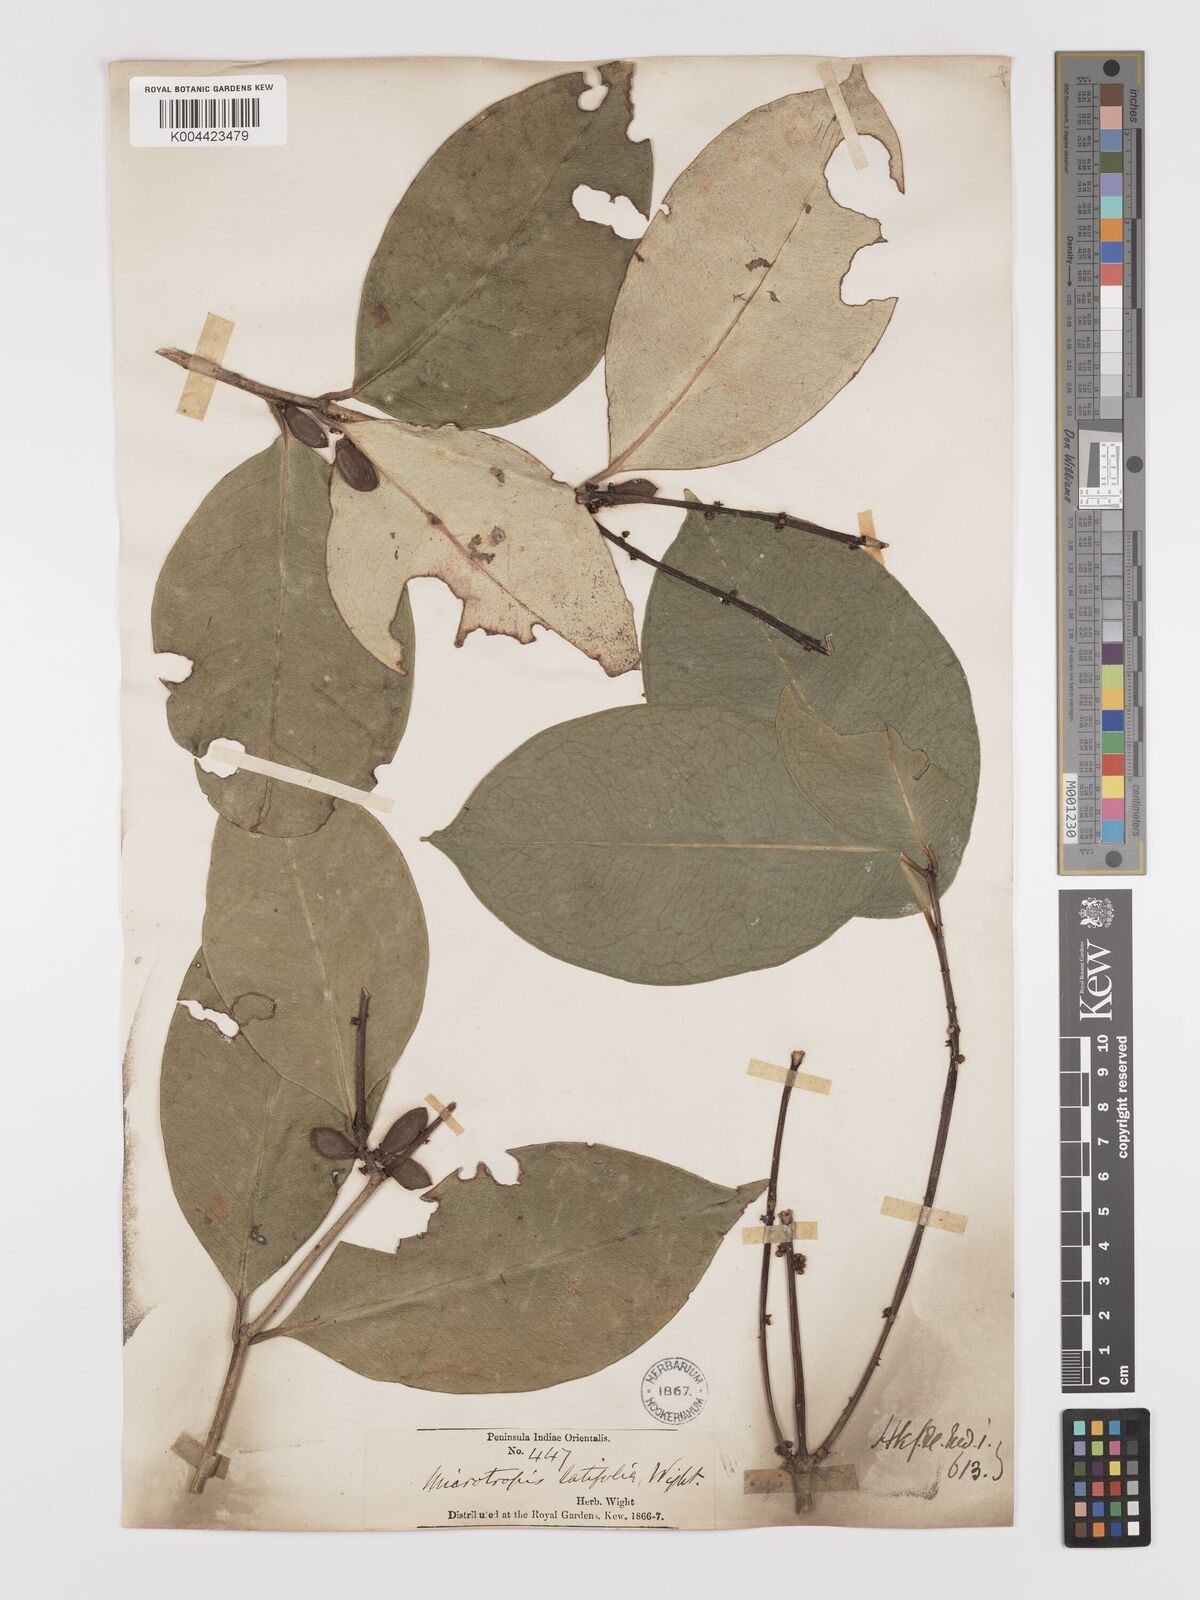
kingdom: Plantae
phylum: Tracheophyta
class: Magnoliopsida
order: Celastrales
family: Celastraceae
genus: Microtropis
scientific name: Microtropis latifolia
